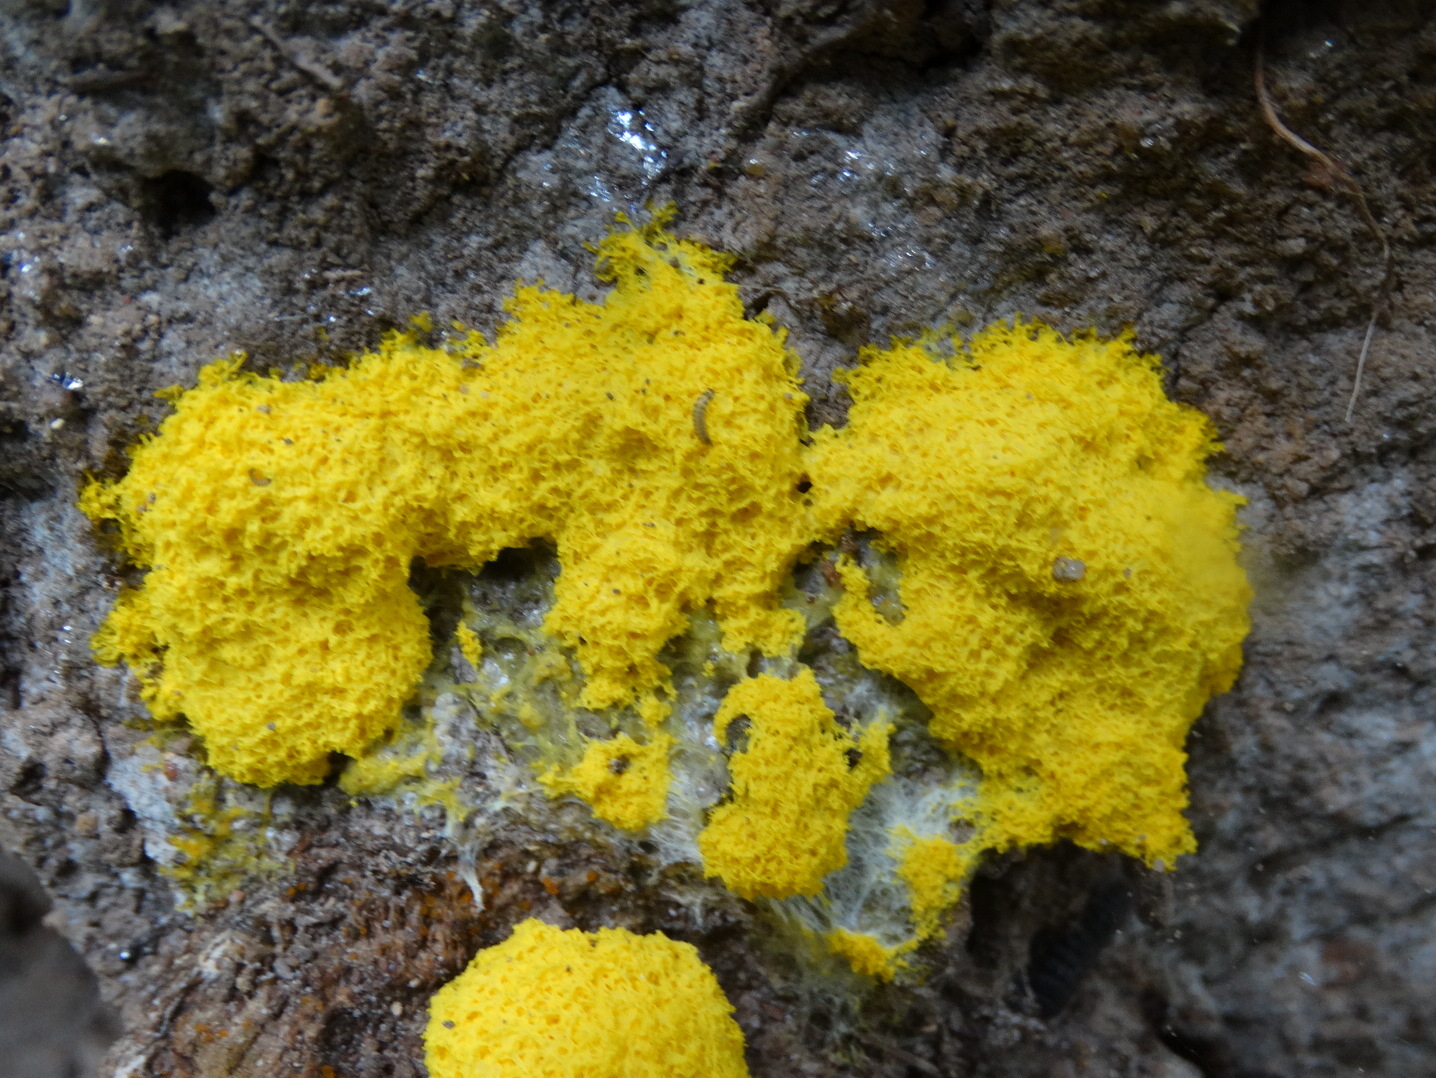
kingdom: Protozoa
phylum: Mycetozoa
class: Myxomycetes
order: Physarales
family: Physaraceae
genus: Fuligo
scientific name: Fuligo septica
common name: gul troldsmør
